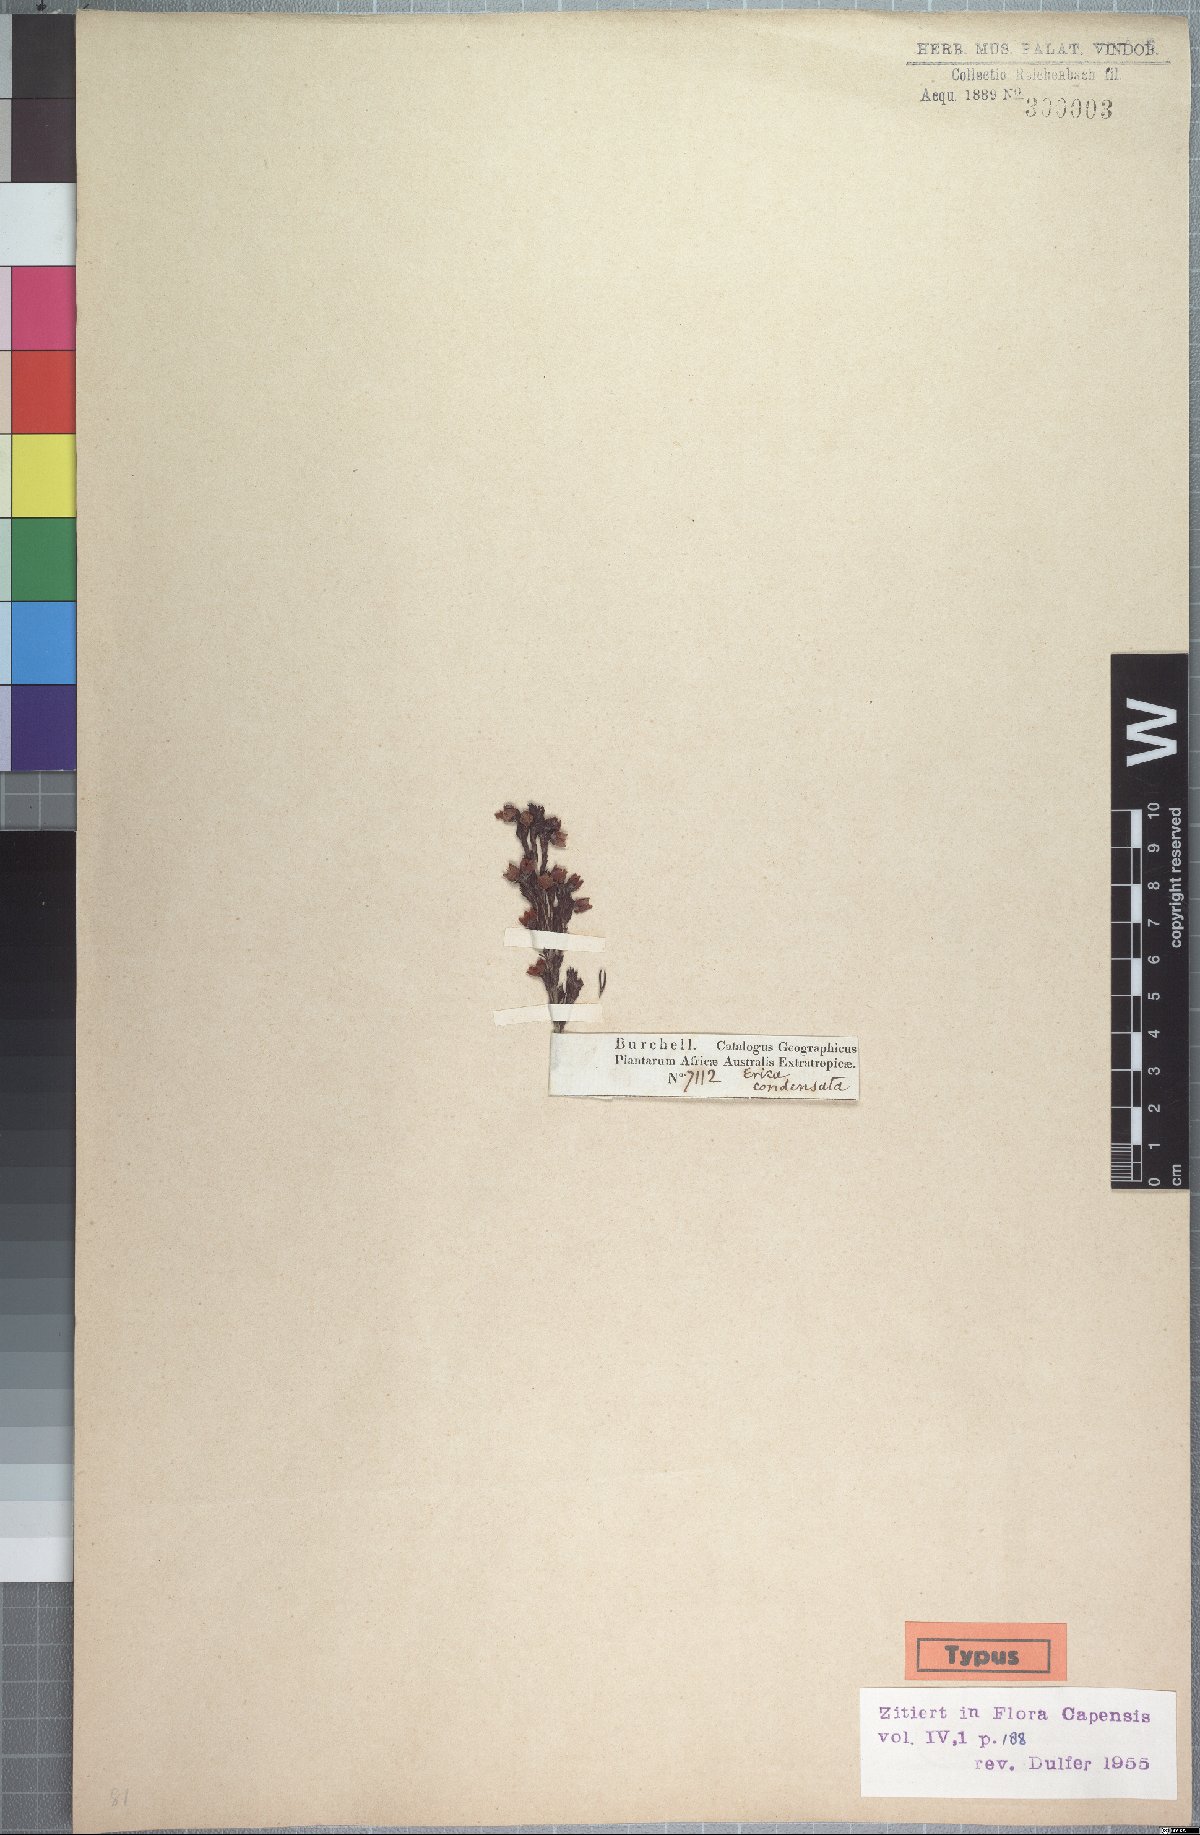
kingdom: Plantae
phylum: Tracheophyta
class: Magnoliopsida
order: Ericales
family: Ericaceae
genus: Erica
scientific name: Erica condensata
